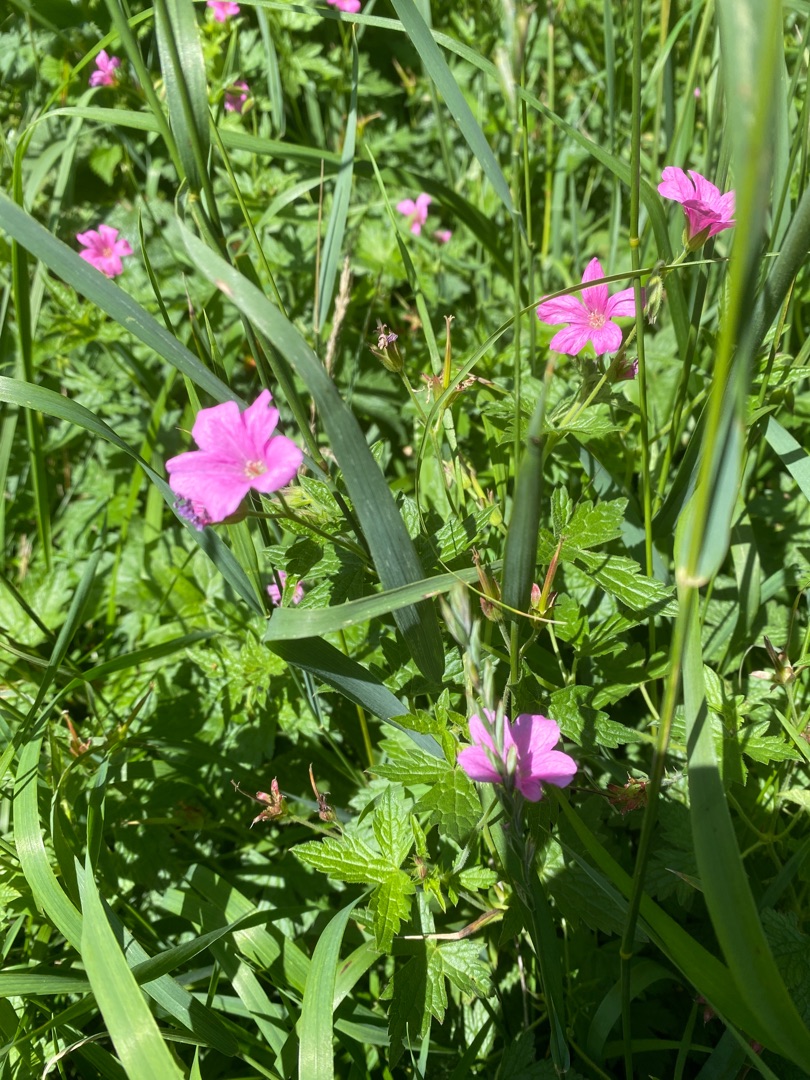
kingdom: Plantae
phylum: Tracheophyta
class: Magnoliopsida
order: Geraniales
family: Geraniaceae
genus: Geranium
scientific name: Geranium endressii
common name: Spansk storkenæb
